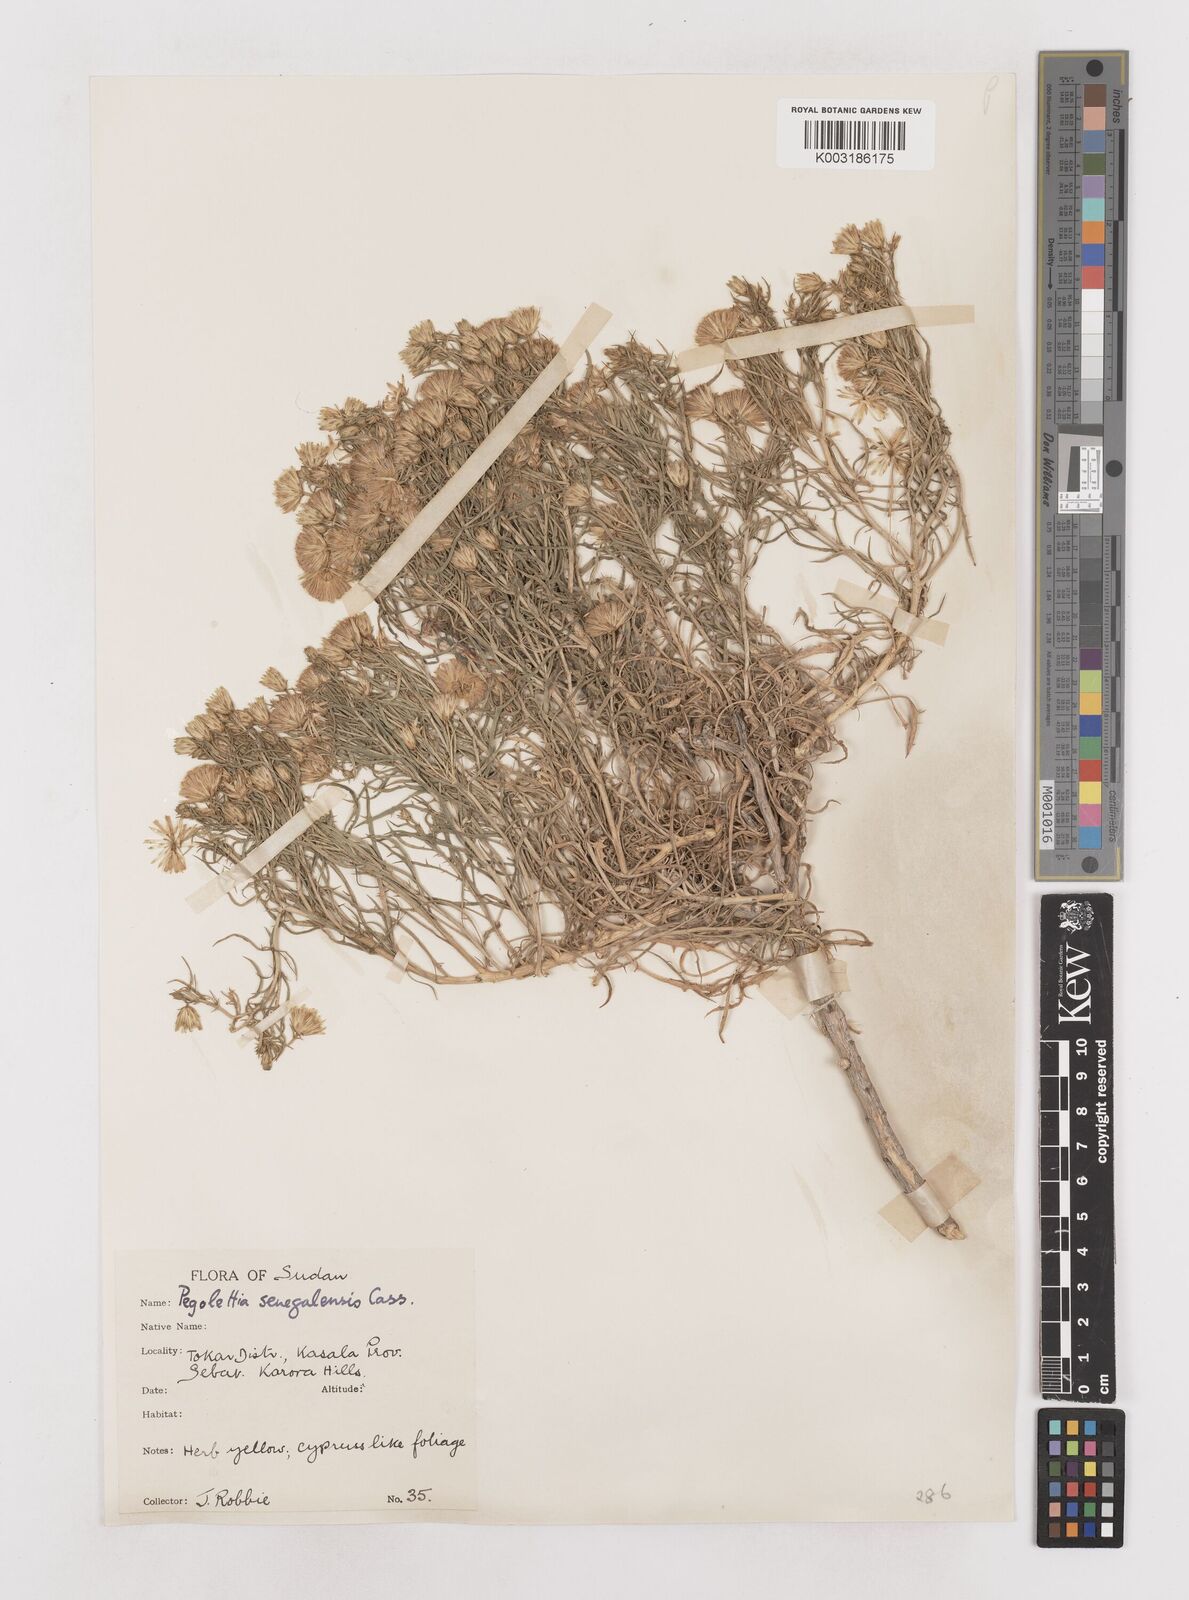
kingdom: Plantae
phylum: Tracheophyta
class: Magnoliopsida
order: Asterales
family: Asteraceae
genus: Pegolettia
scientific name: Pegolettia senegalensis
